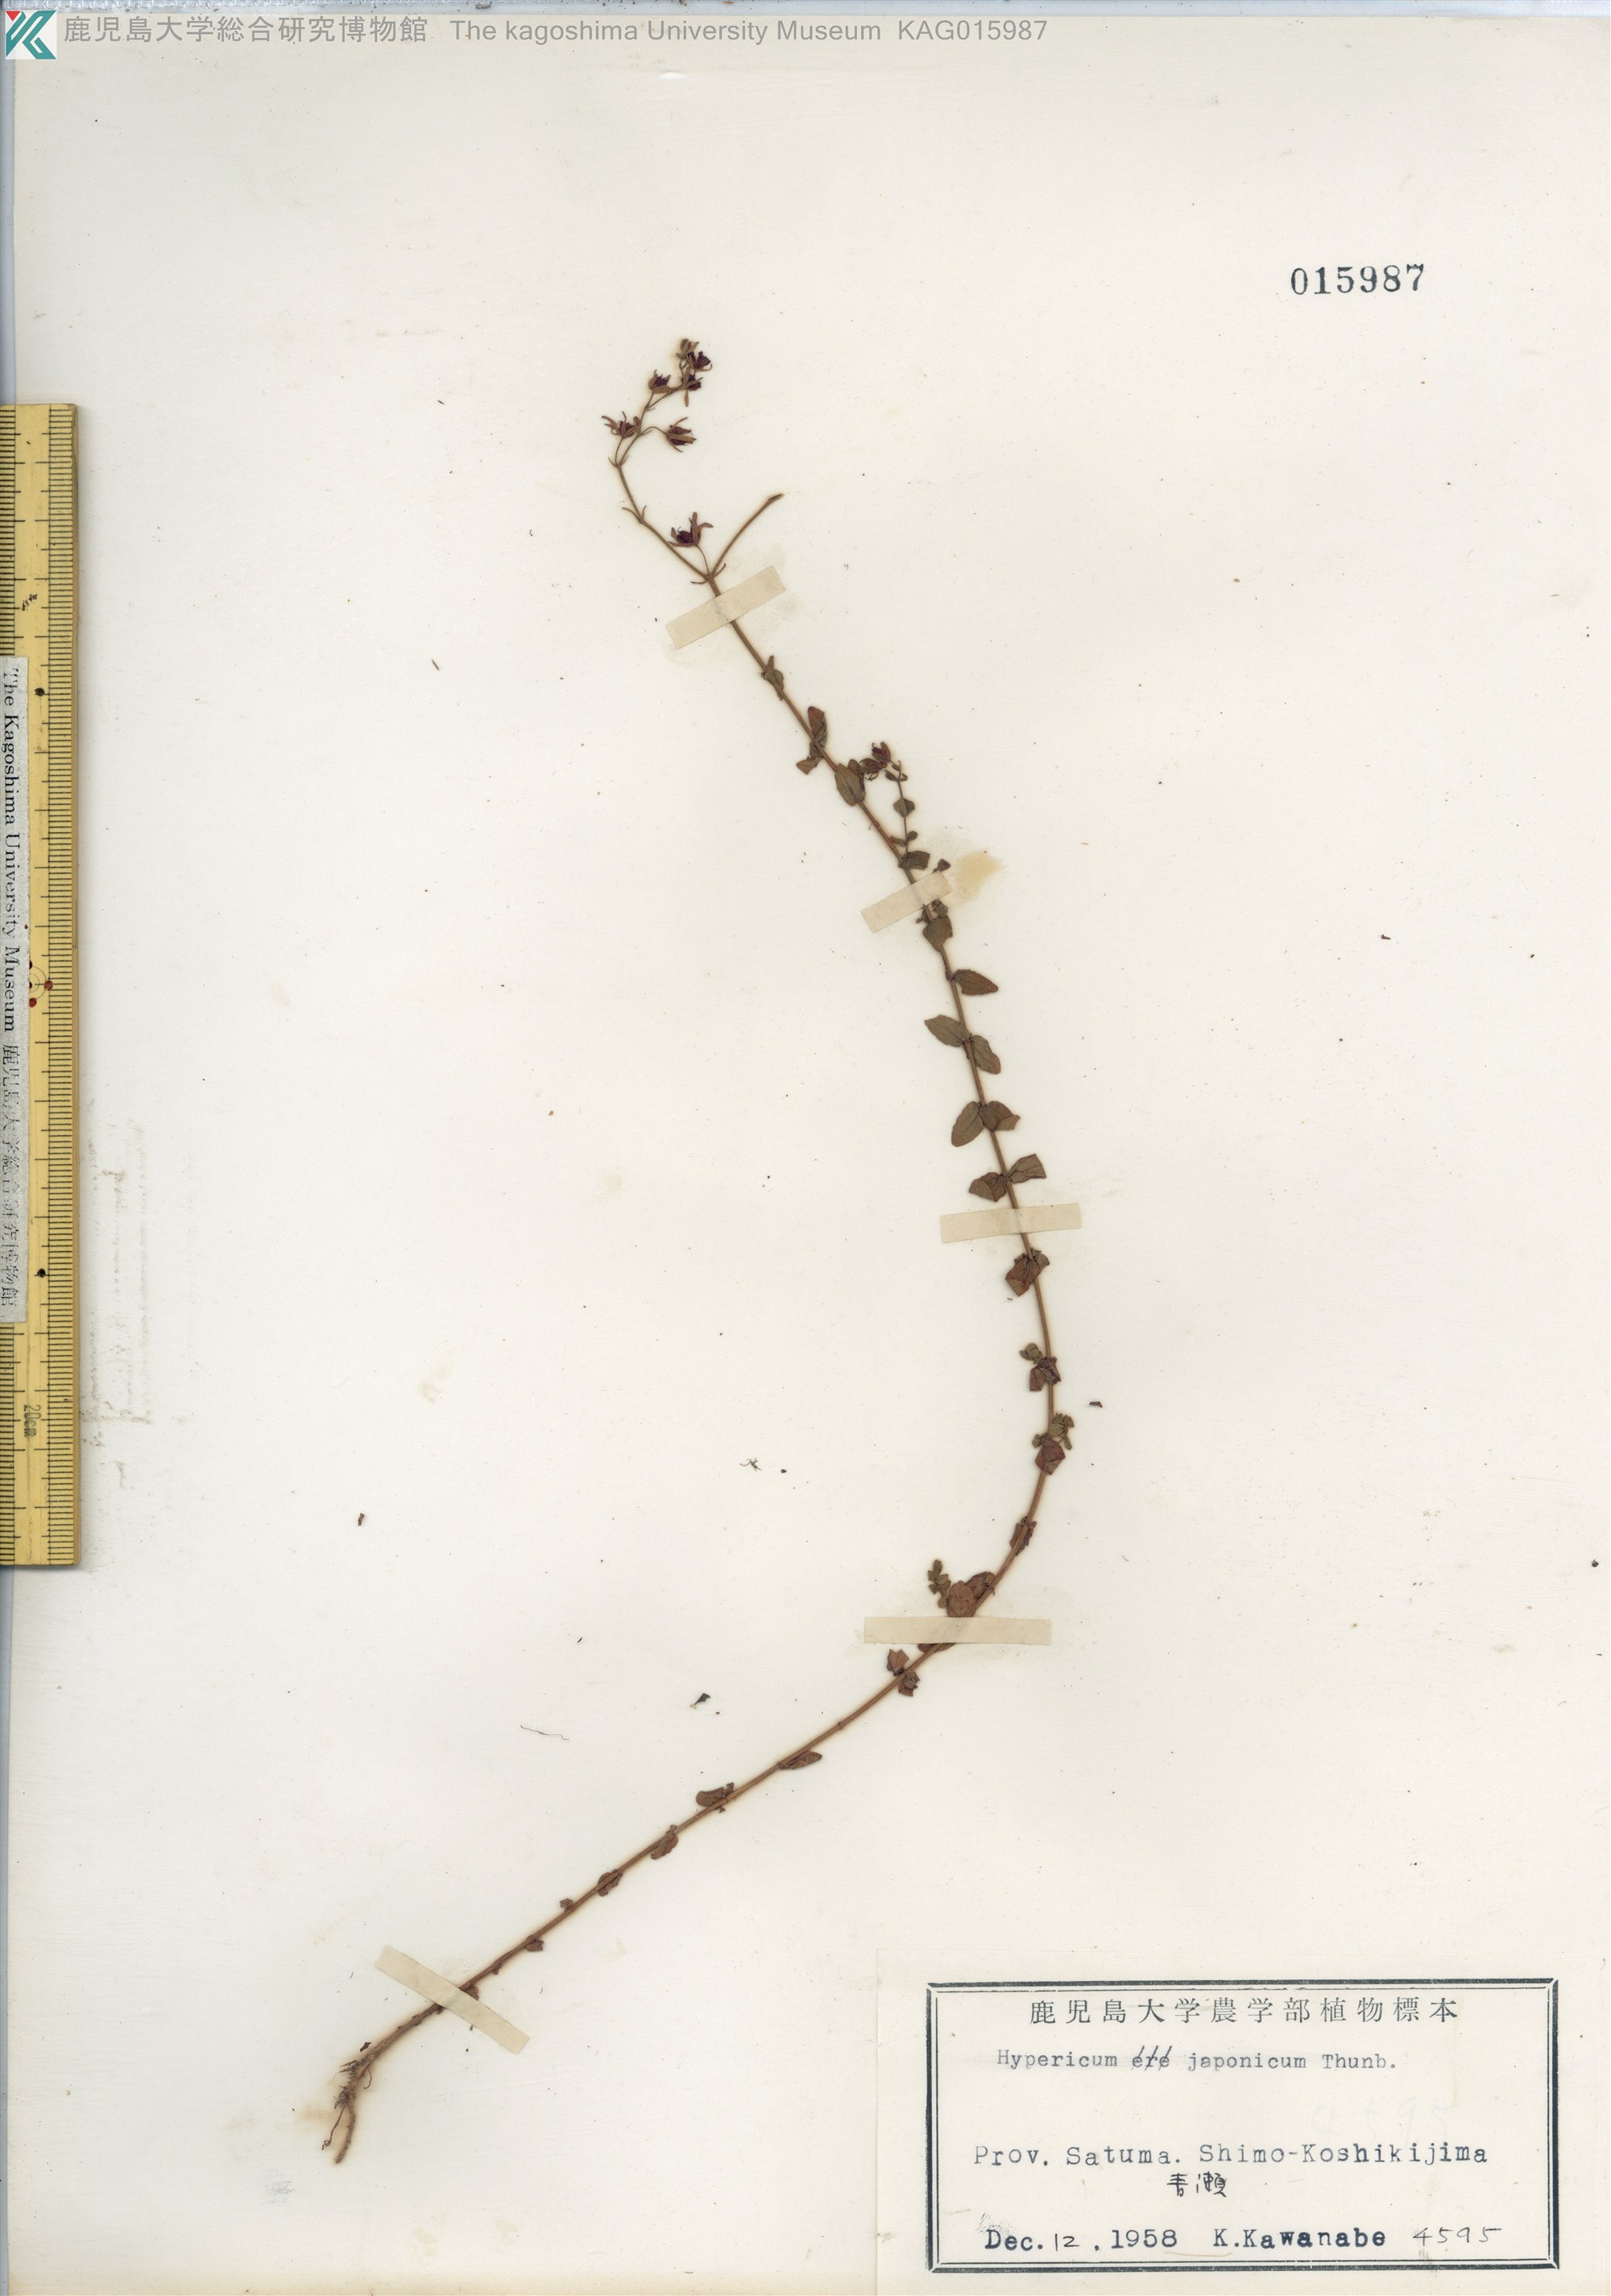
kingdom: Plantae
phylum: Tracheophyta
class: Magnoliopsida
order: Malpighiales
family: Hypericaceae
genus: Hypericum
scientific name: Hypericum japonicum
